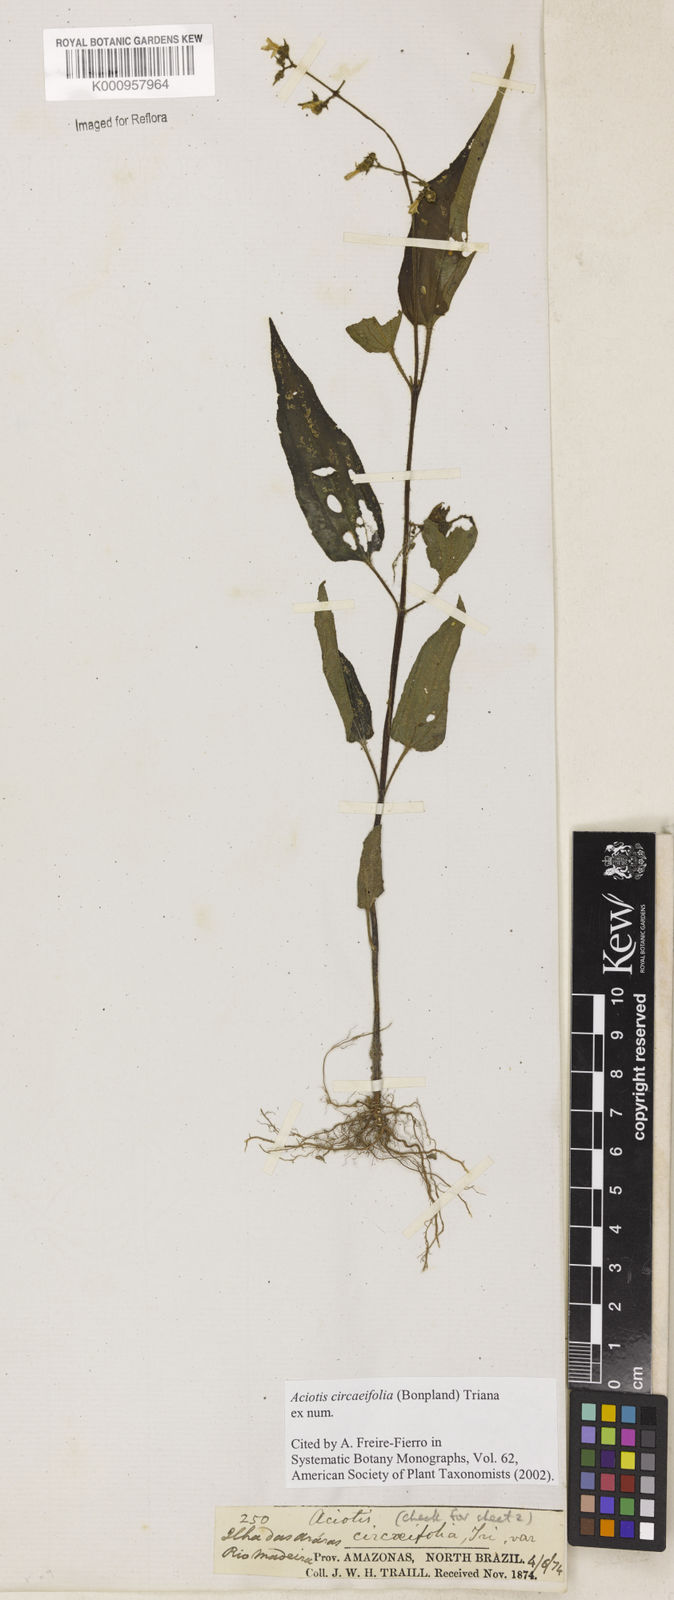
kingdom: Plantae
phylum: Tracheophyta
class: Magnoliopsida
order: Myrtales
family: Melastomataceae
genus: Aciotis
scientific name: Aciotis circaeifolia
